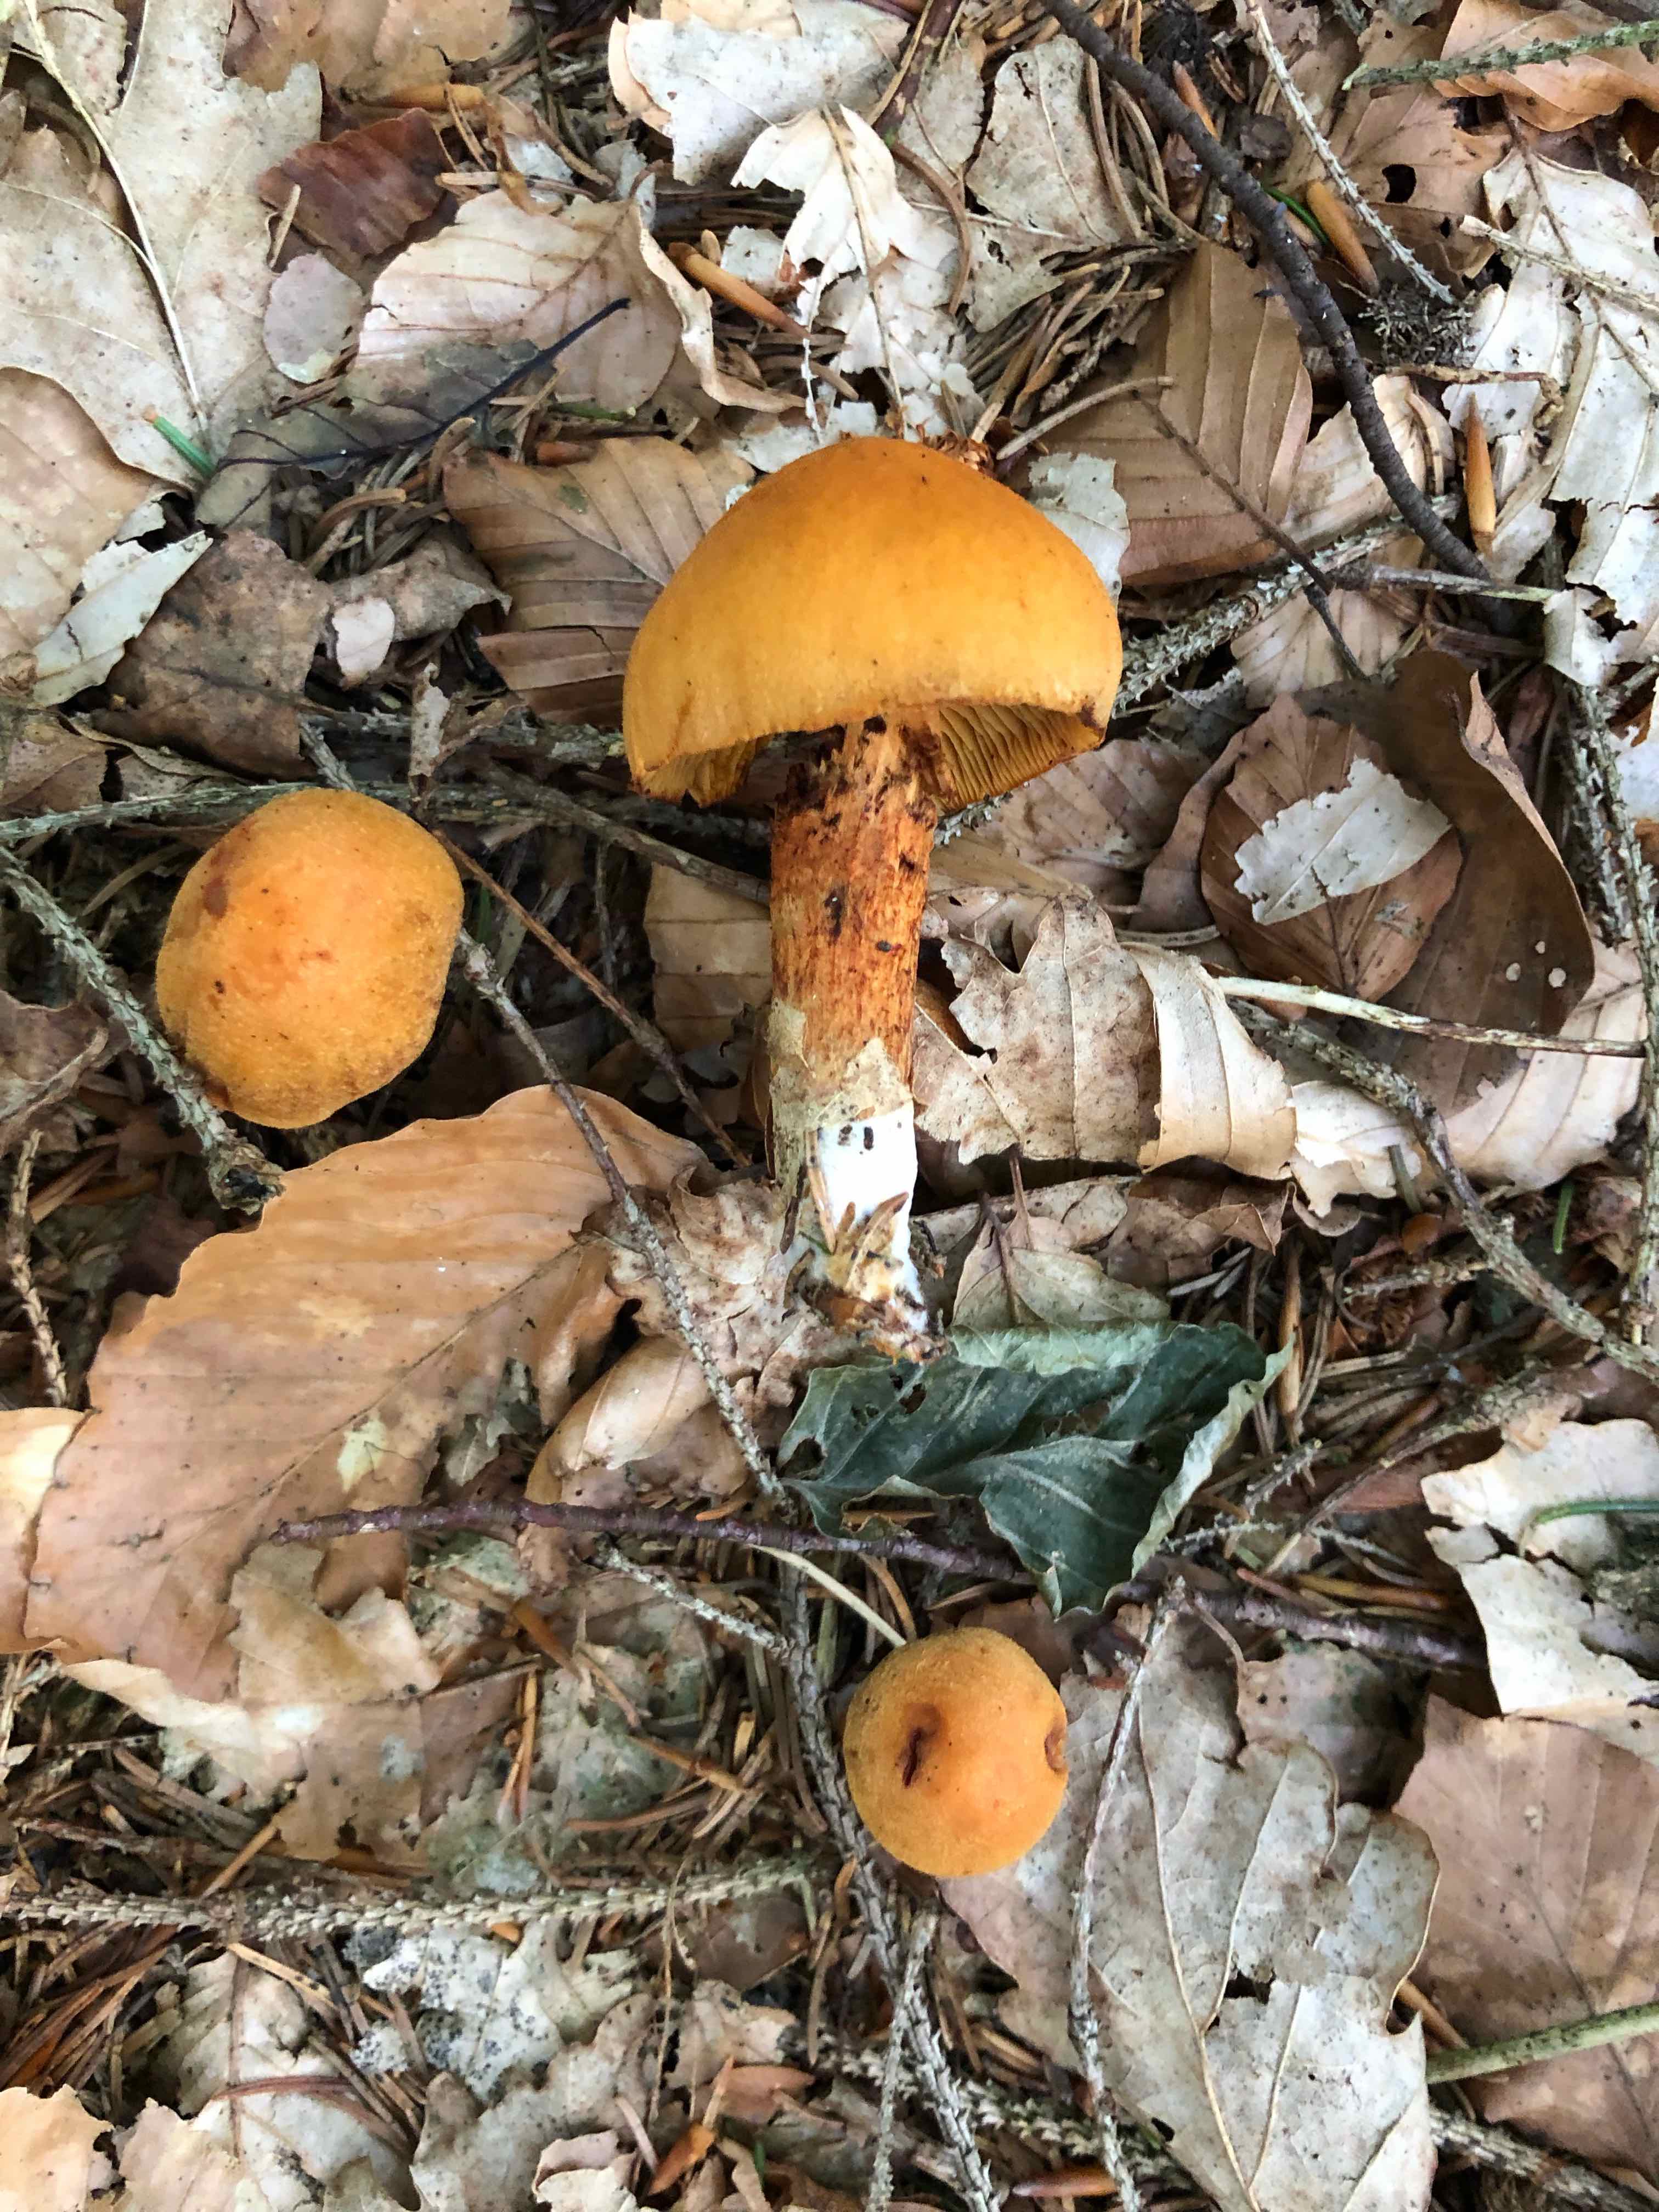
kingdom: Fungi
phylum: Basidiomycota
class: Agaricomycetes
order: Agaricales
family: Cortinariaceae
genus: Aureonarius
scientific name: Aureonarius limonius
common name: orangegul slørhat
